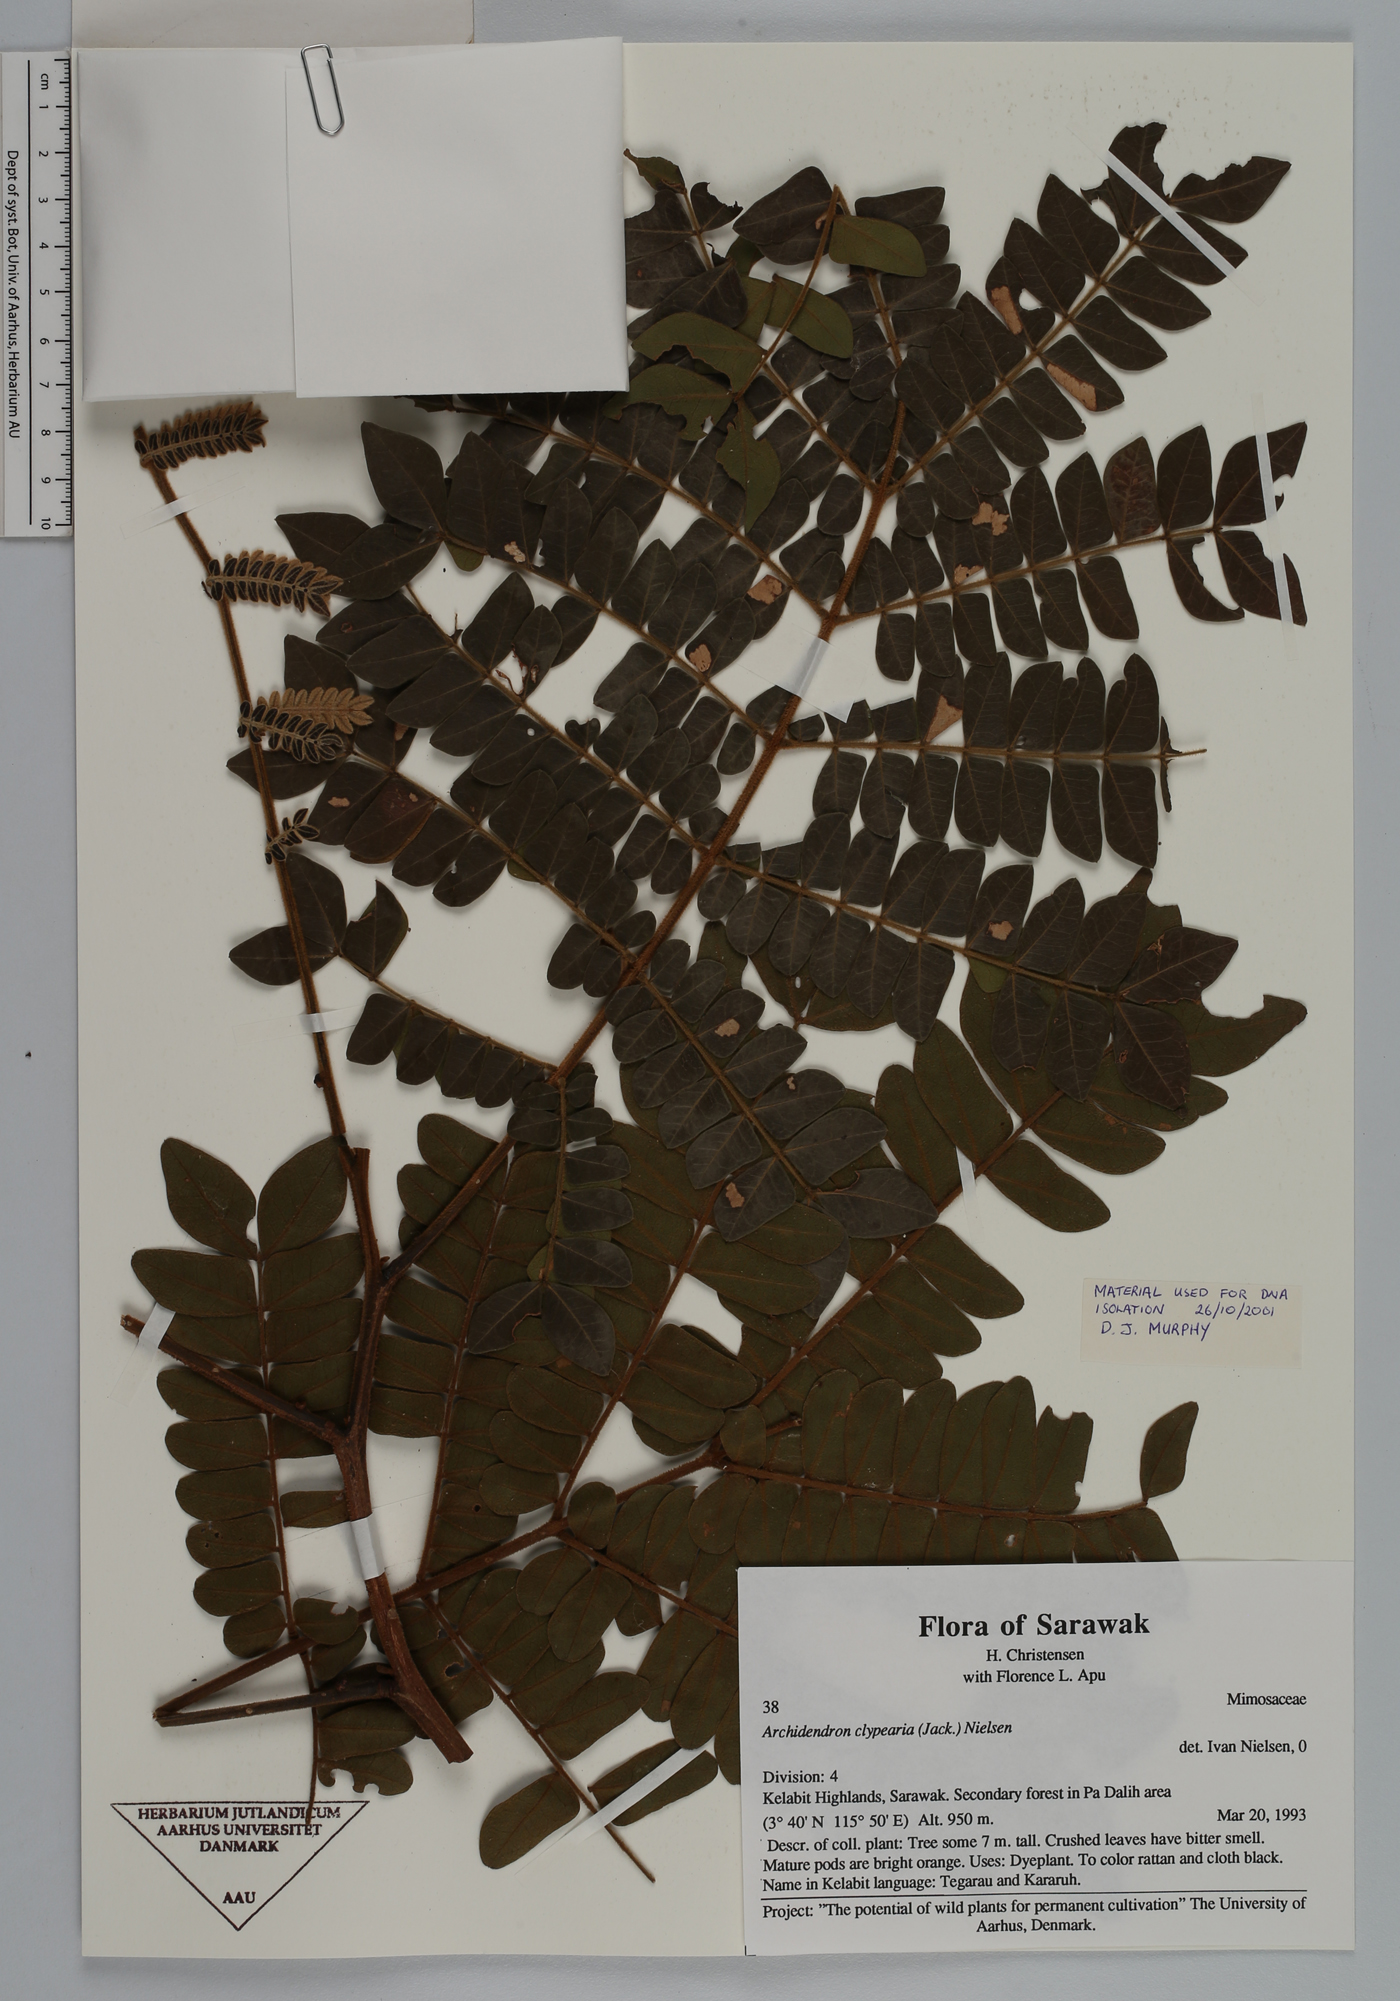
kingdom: Plantae
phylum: Tracheophyta
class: Magnoliopsida
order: Fabales
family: Fabaceae
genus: Archidendron
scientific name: Archidendron clypearia
